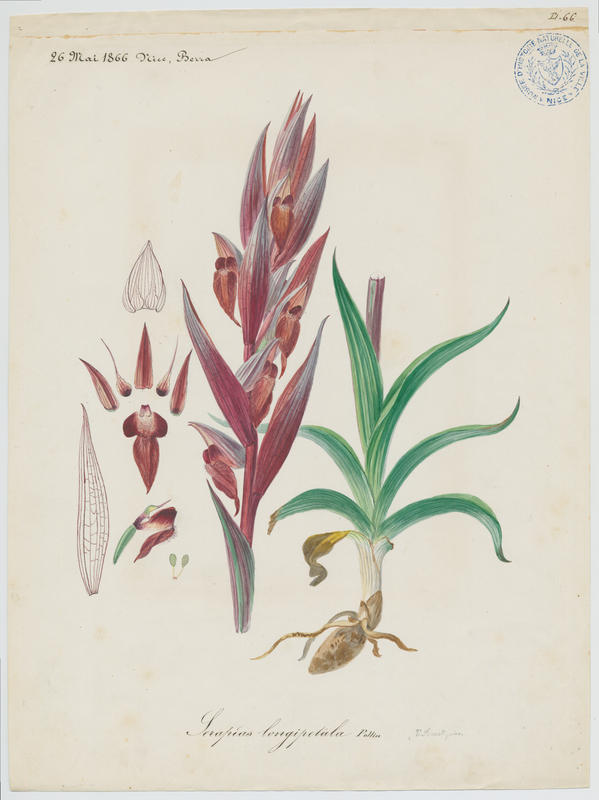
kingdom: Plantae
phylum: Tracheophyta
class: Liliopsida
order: Asparagales
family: Orchidaceae
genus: Serapias
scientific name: Serapias vomeracea
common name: Long-lipped tongue-orchid
